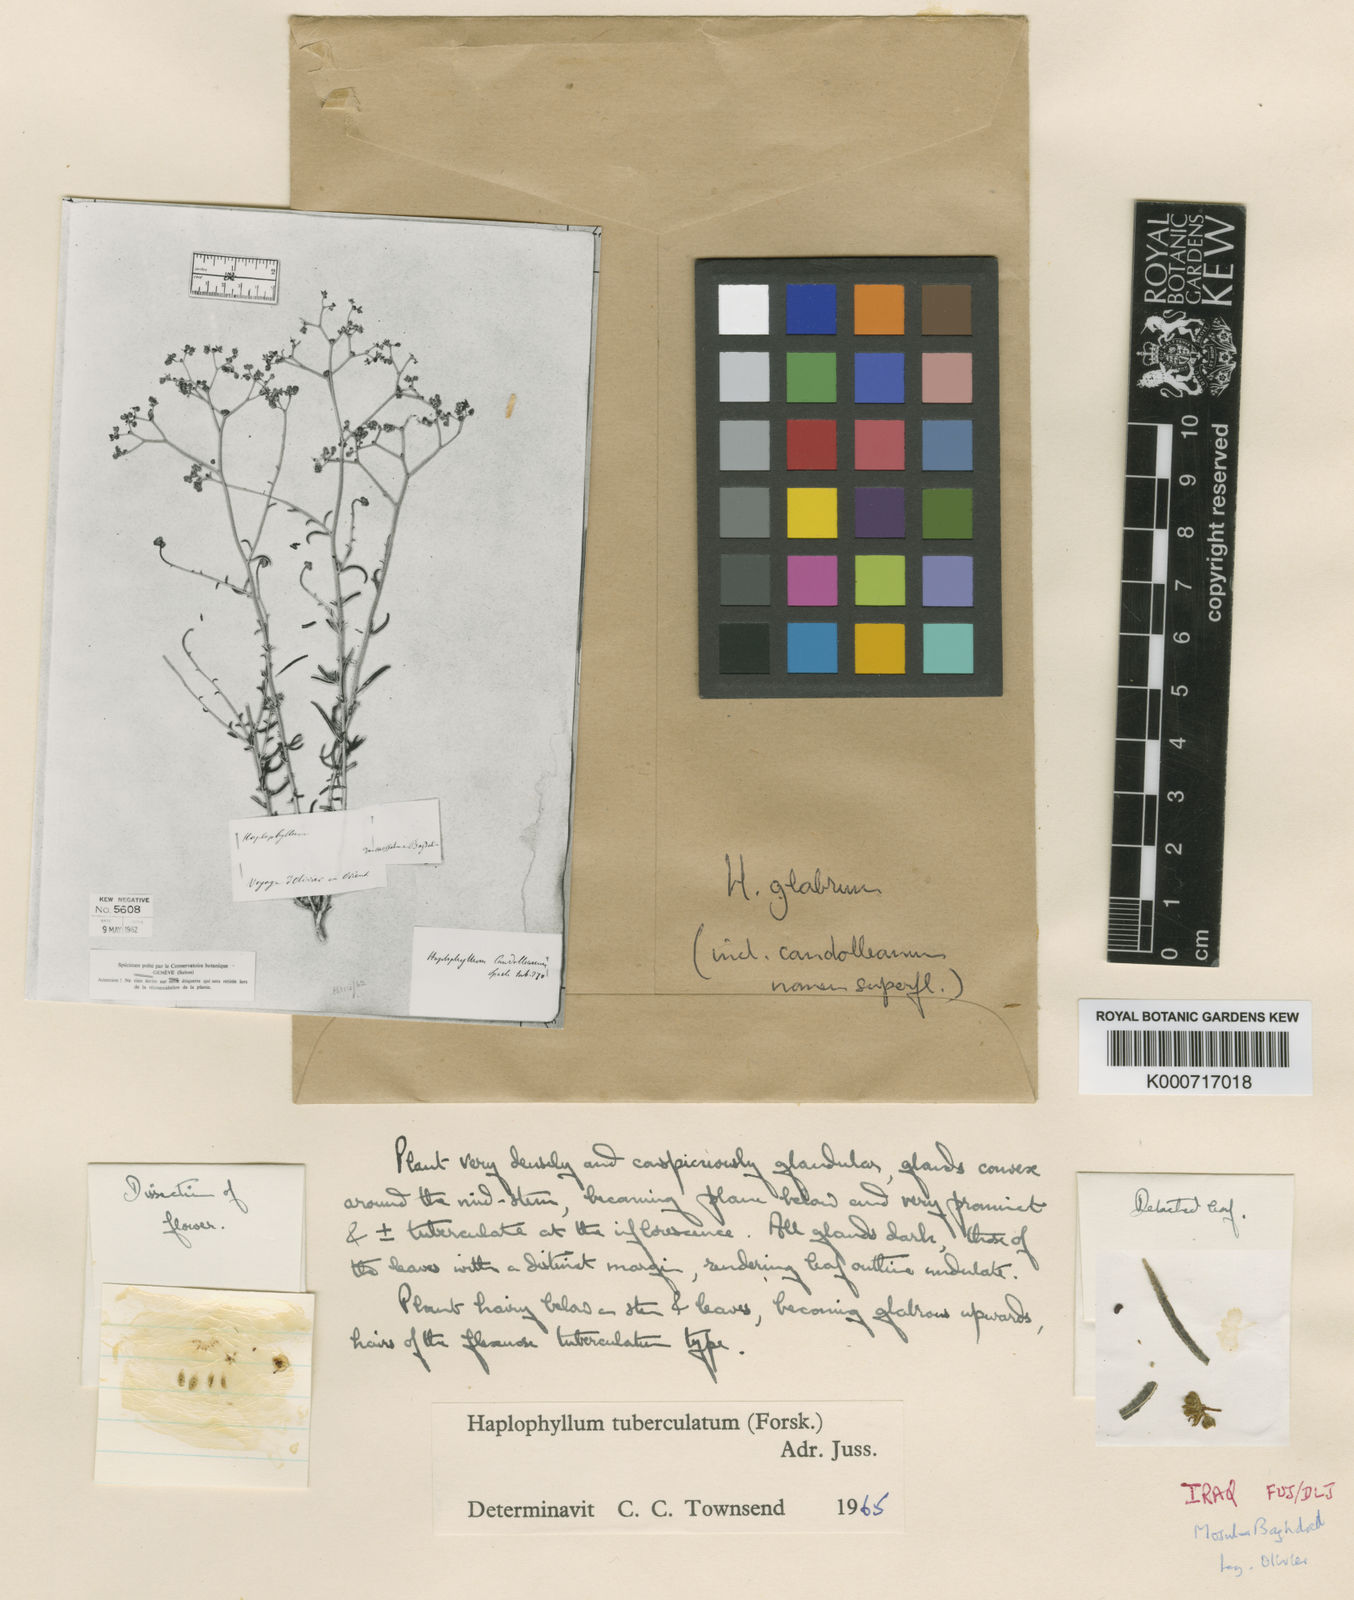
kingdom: Plantae
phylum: Tracheophyta
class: Magnoliopsida
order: Sapindales
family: Rutaceae
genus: Haplophyllum
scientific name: Haplophyllum tuberculatum
